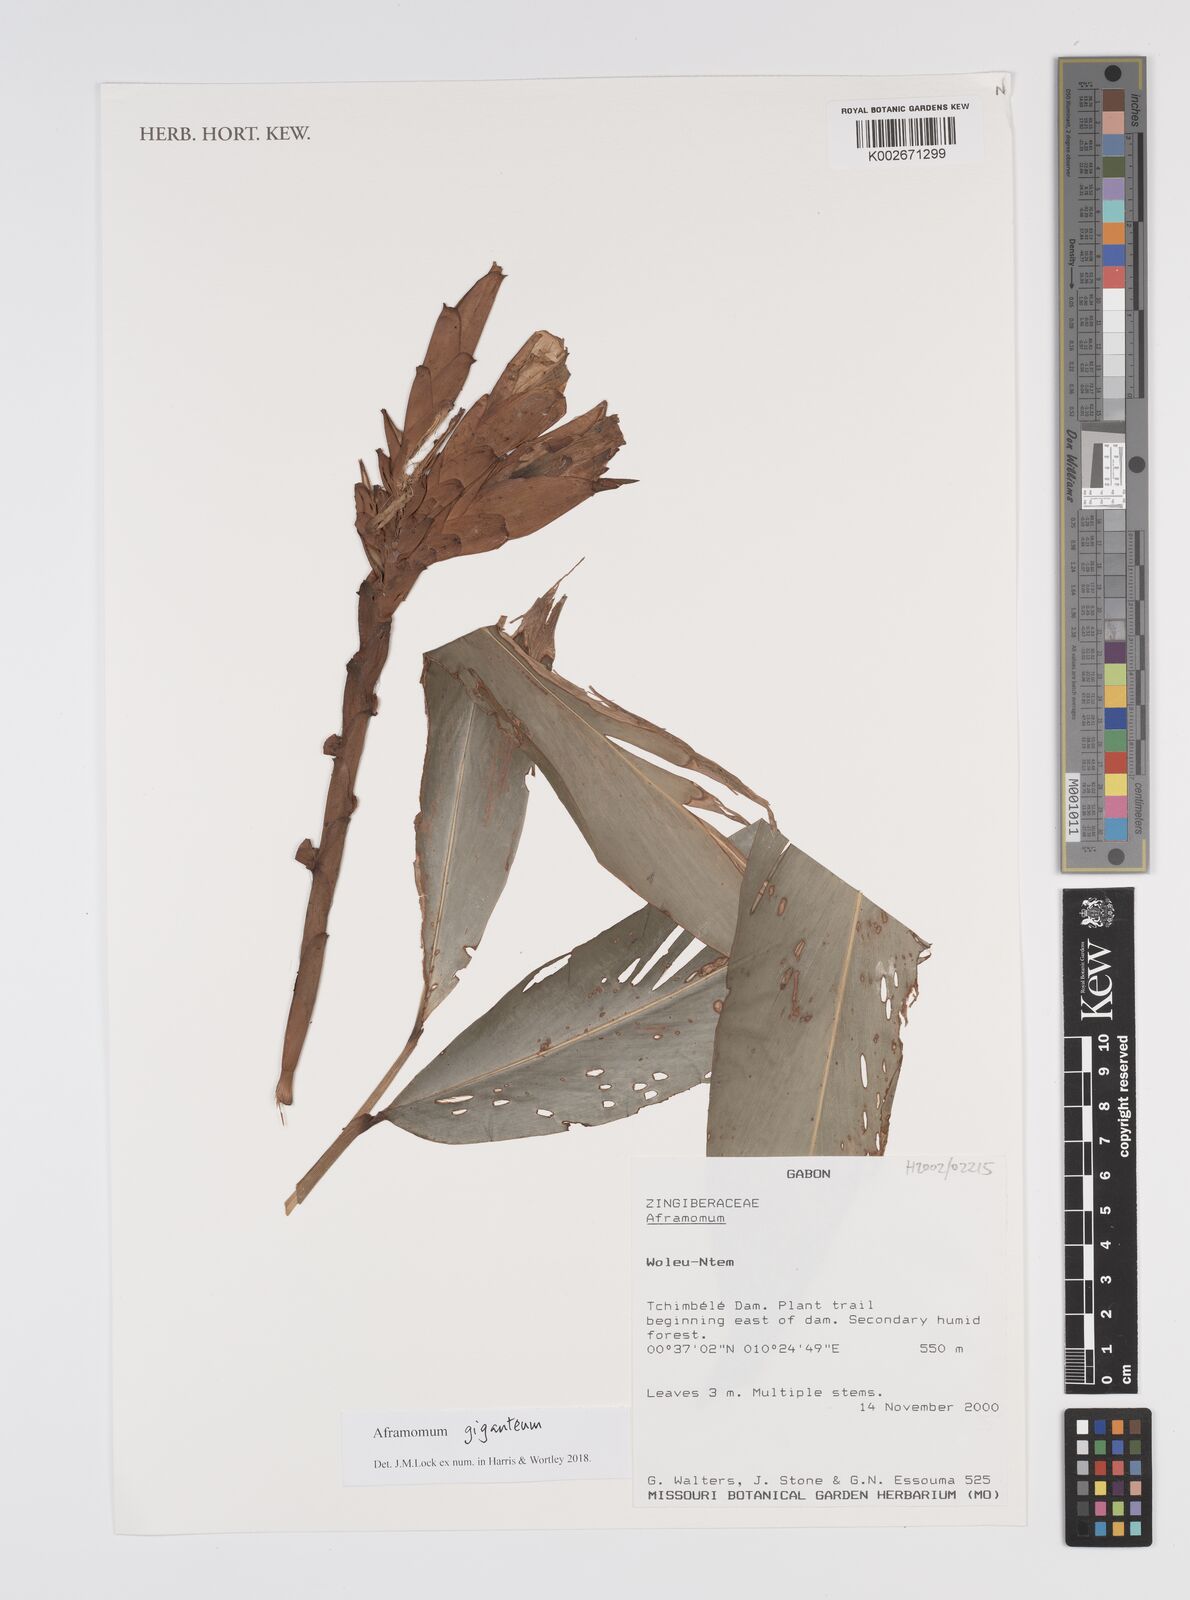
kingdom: Plantae
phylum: Tracheophyta
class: Liliopsida
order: Zingiberales
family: Zingiberaceae
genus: Aframomum
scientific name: Aframomum giganteum
